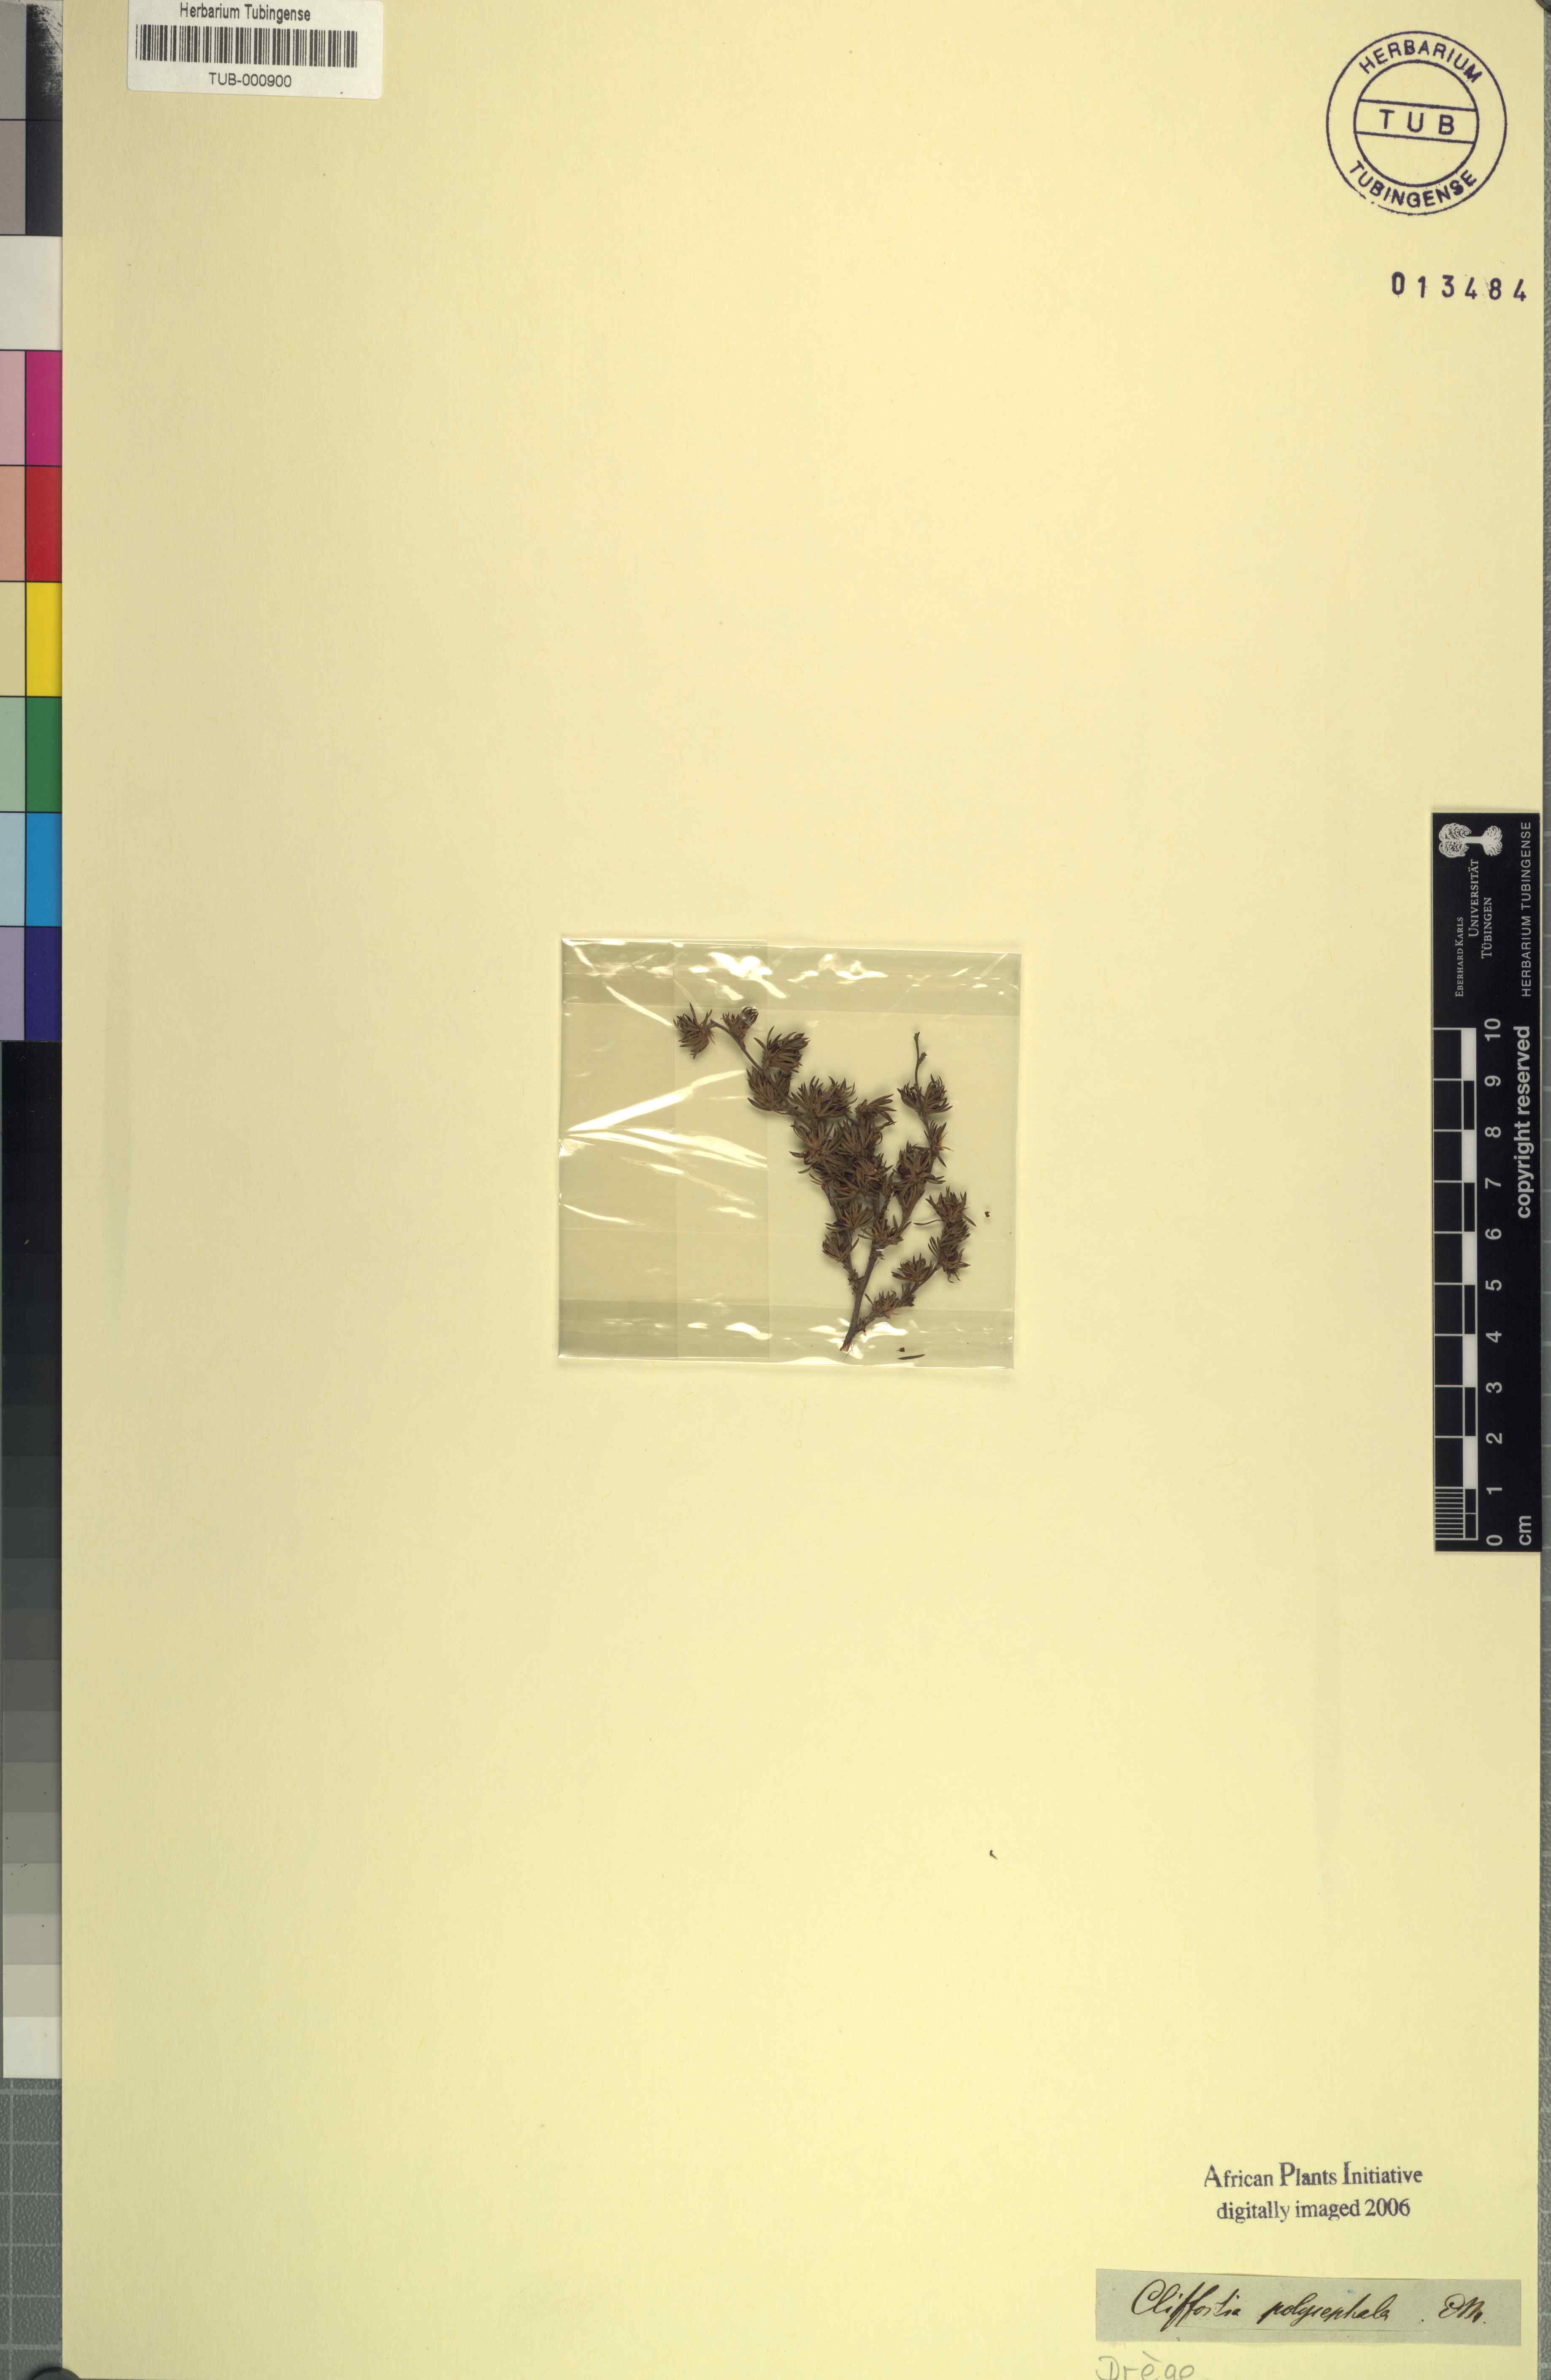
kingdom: Plantae
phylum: Tracheophyta
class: Magnoliopsida
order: Rosales
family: Rosaceae
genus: Cliffortia
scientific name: Cliffortia sericea
